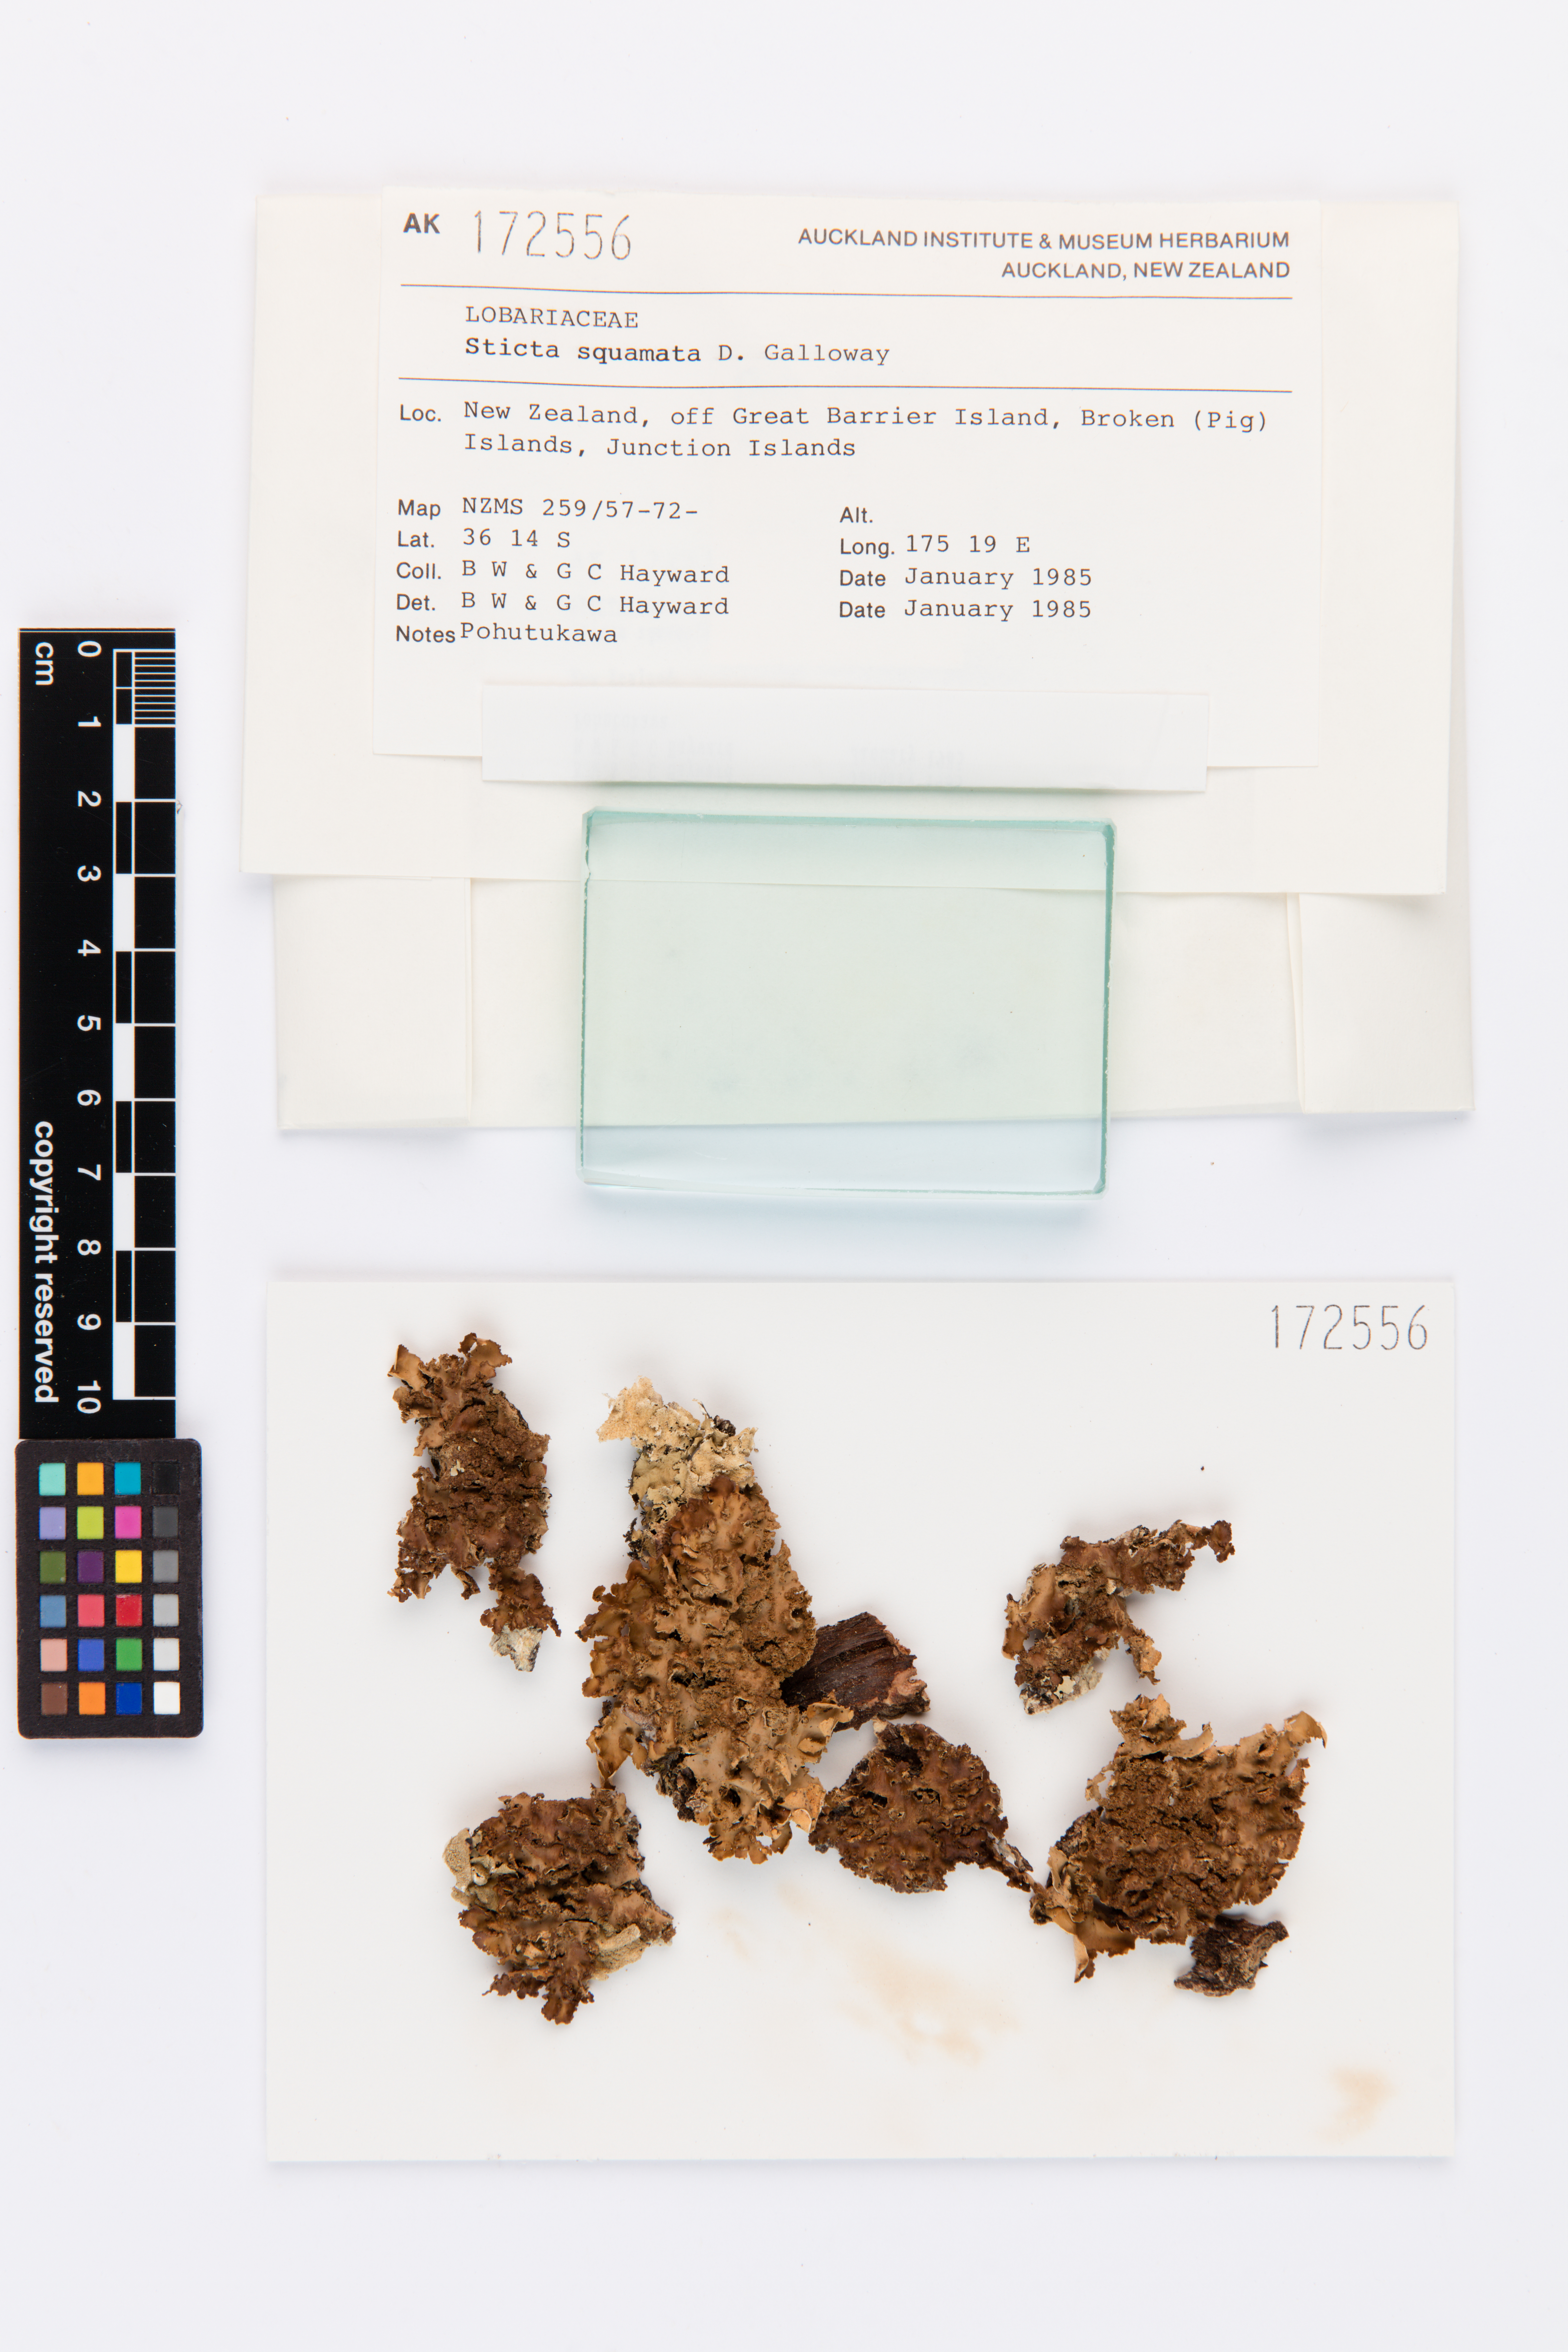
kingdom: Fungi
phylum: Ascomycota
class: Lecanoromycetes
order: Peltigerales
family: Lobariaceae
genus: Sticta
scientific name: Sticta squamata
